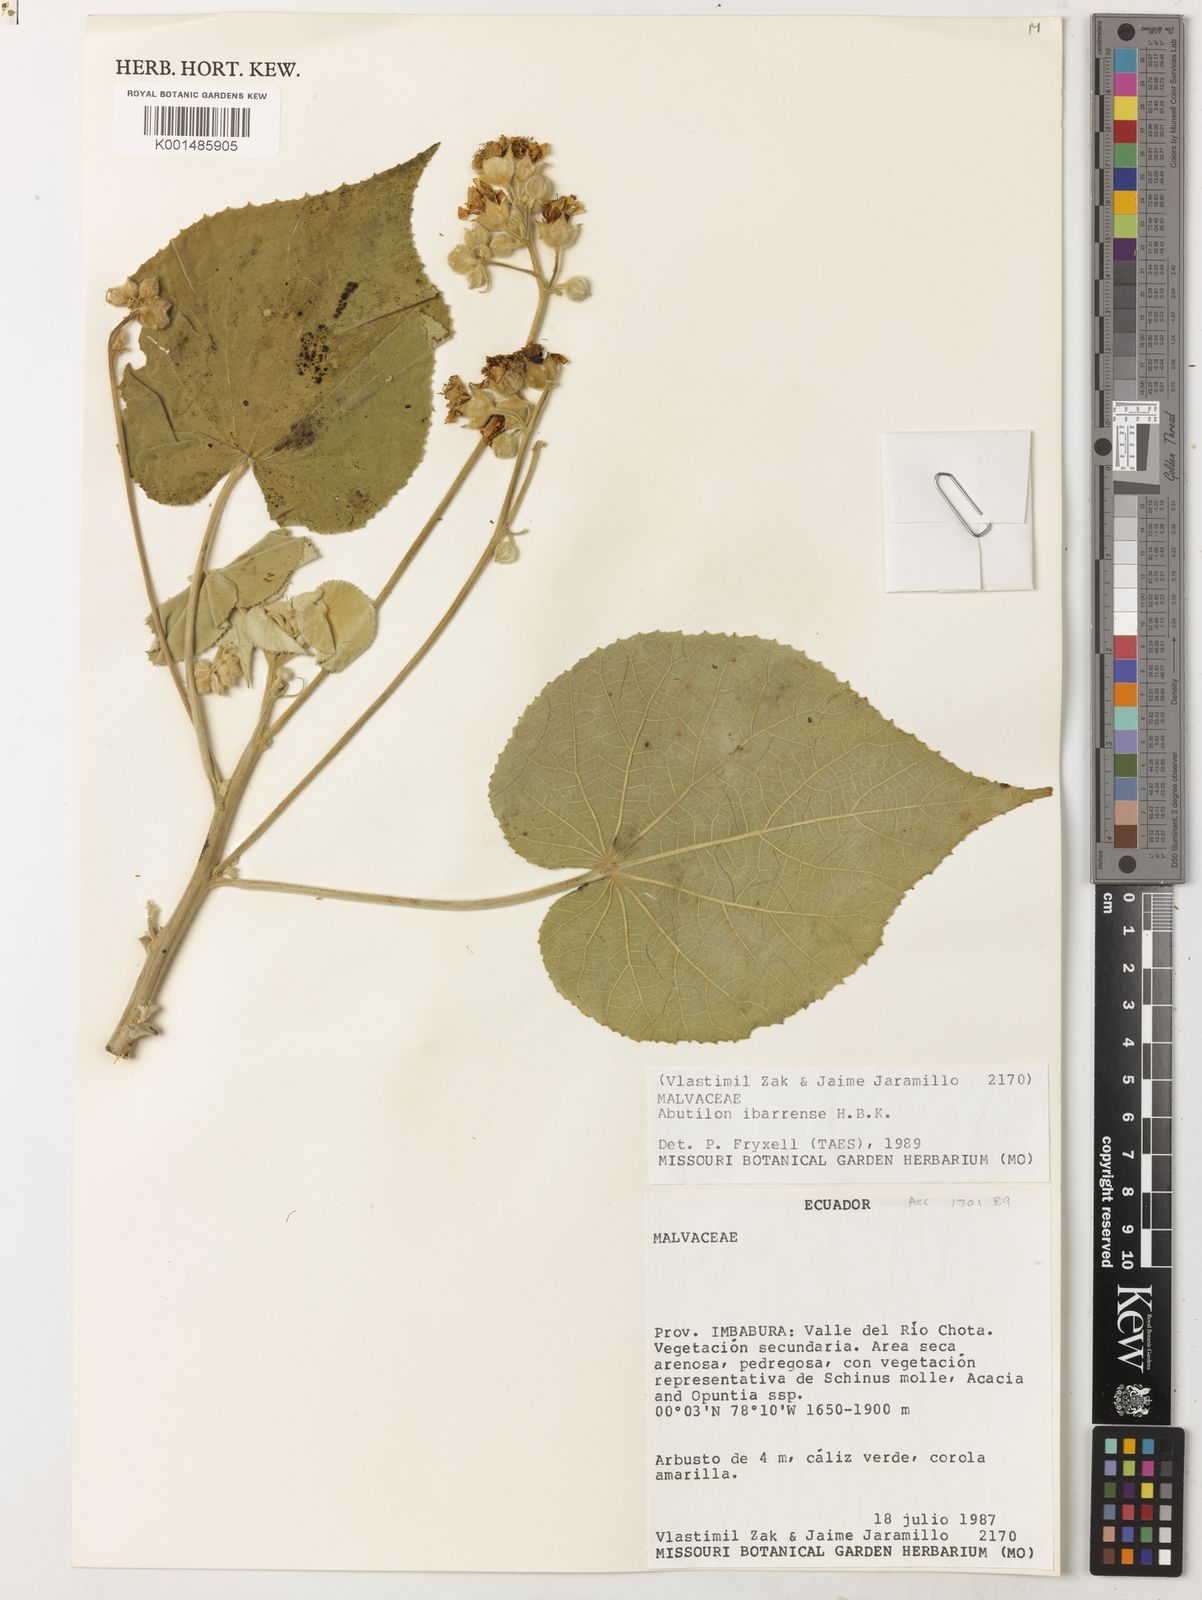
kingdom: Plantae
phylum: Tracheophyta
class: Magnoliopsida
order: Malvales
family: Malvaceae
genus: Abutilon
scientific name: Abutilon ibarrense
